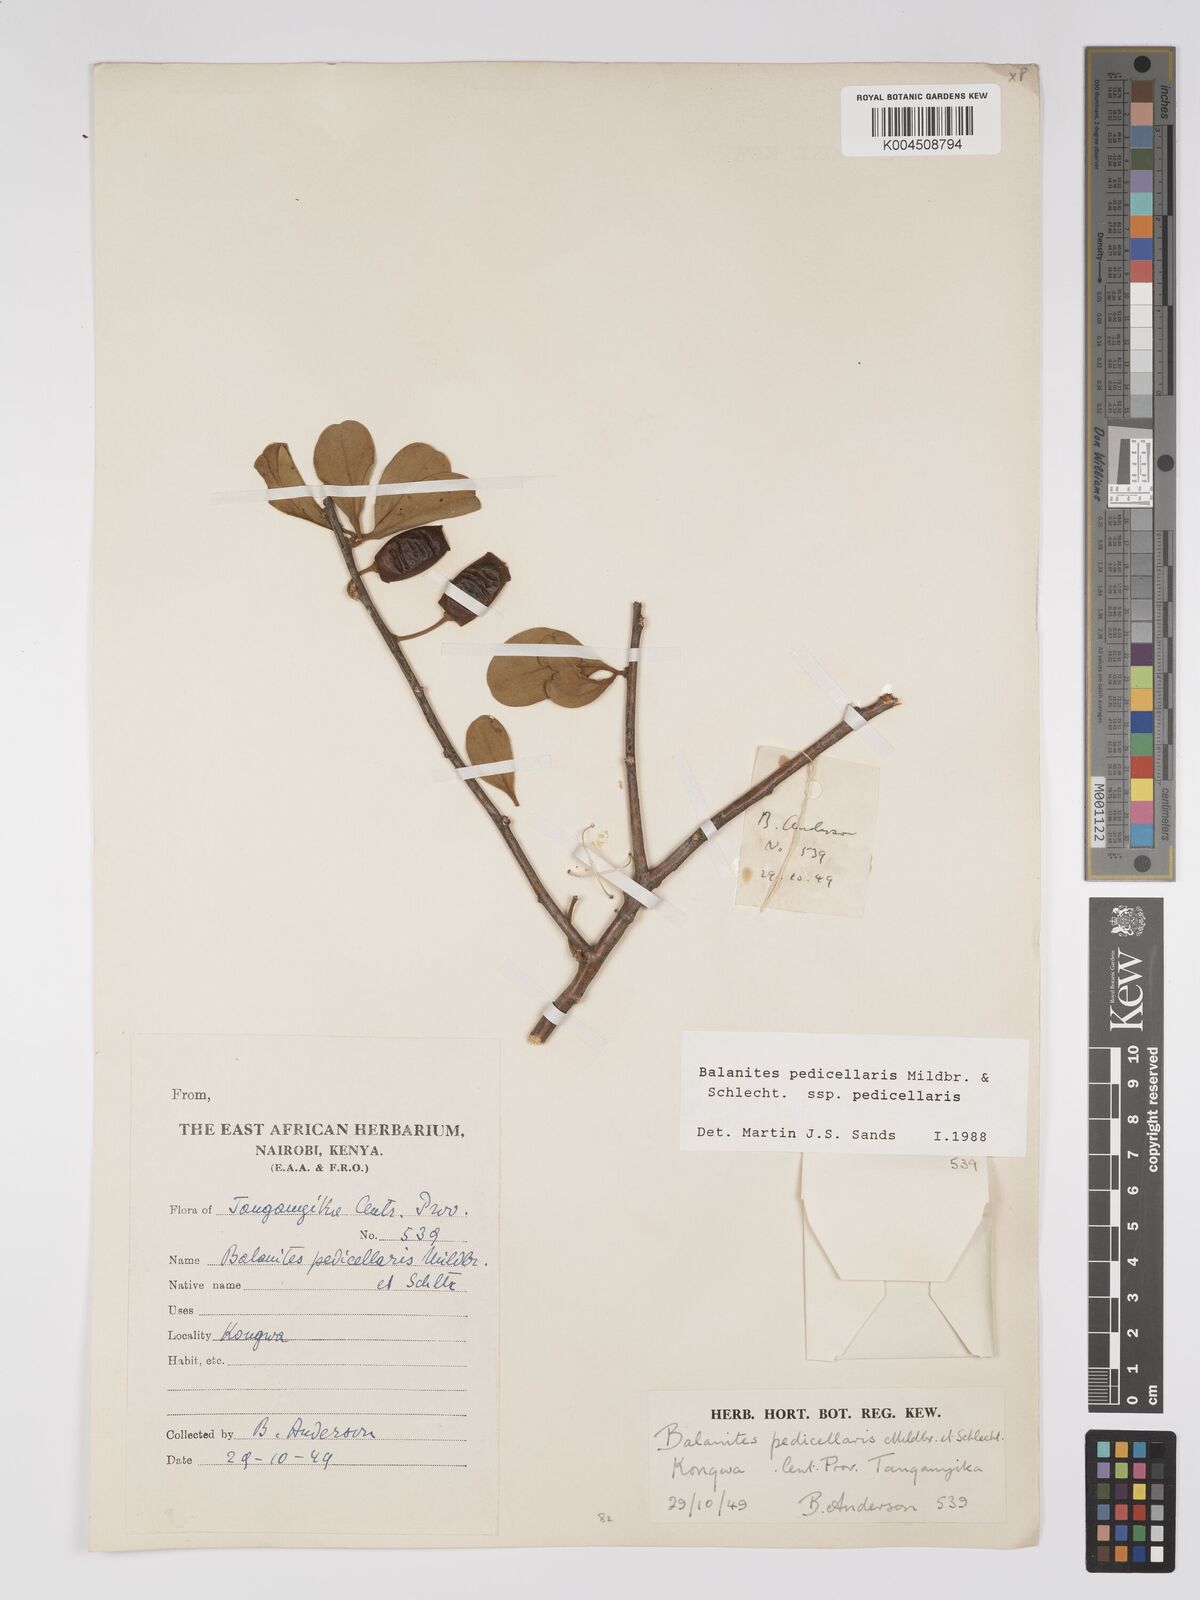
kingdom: Plantae
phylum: Tracheophyta
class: Magnoliopsida
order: Zygophyllales
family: Zygophyllaceae
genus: Balanites
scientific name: Balanites pedicellaris
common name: Small green-thorn
